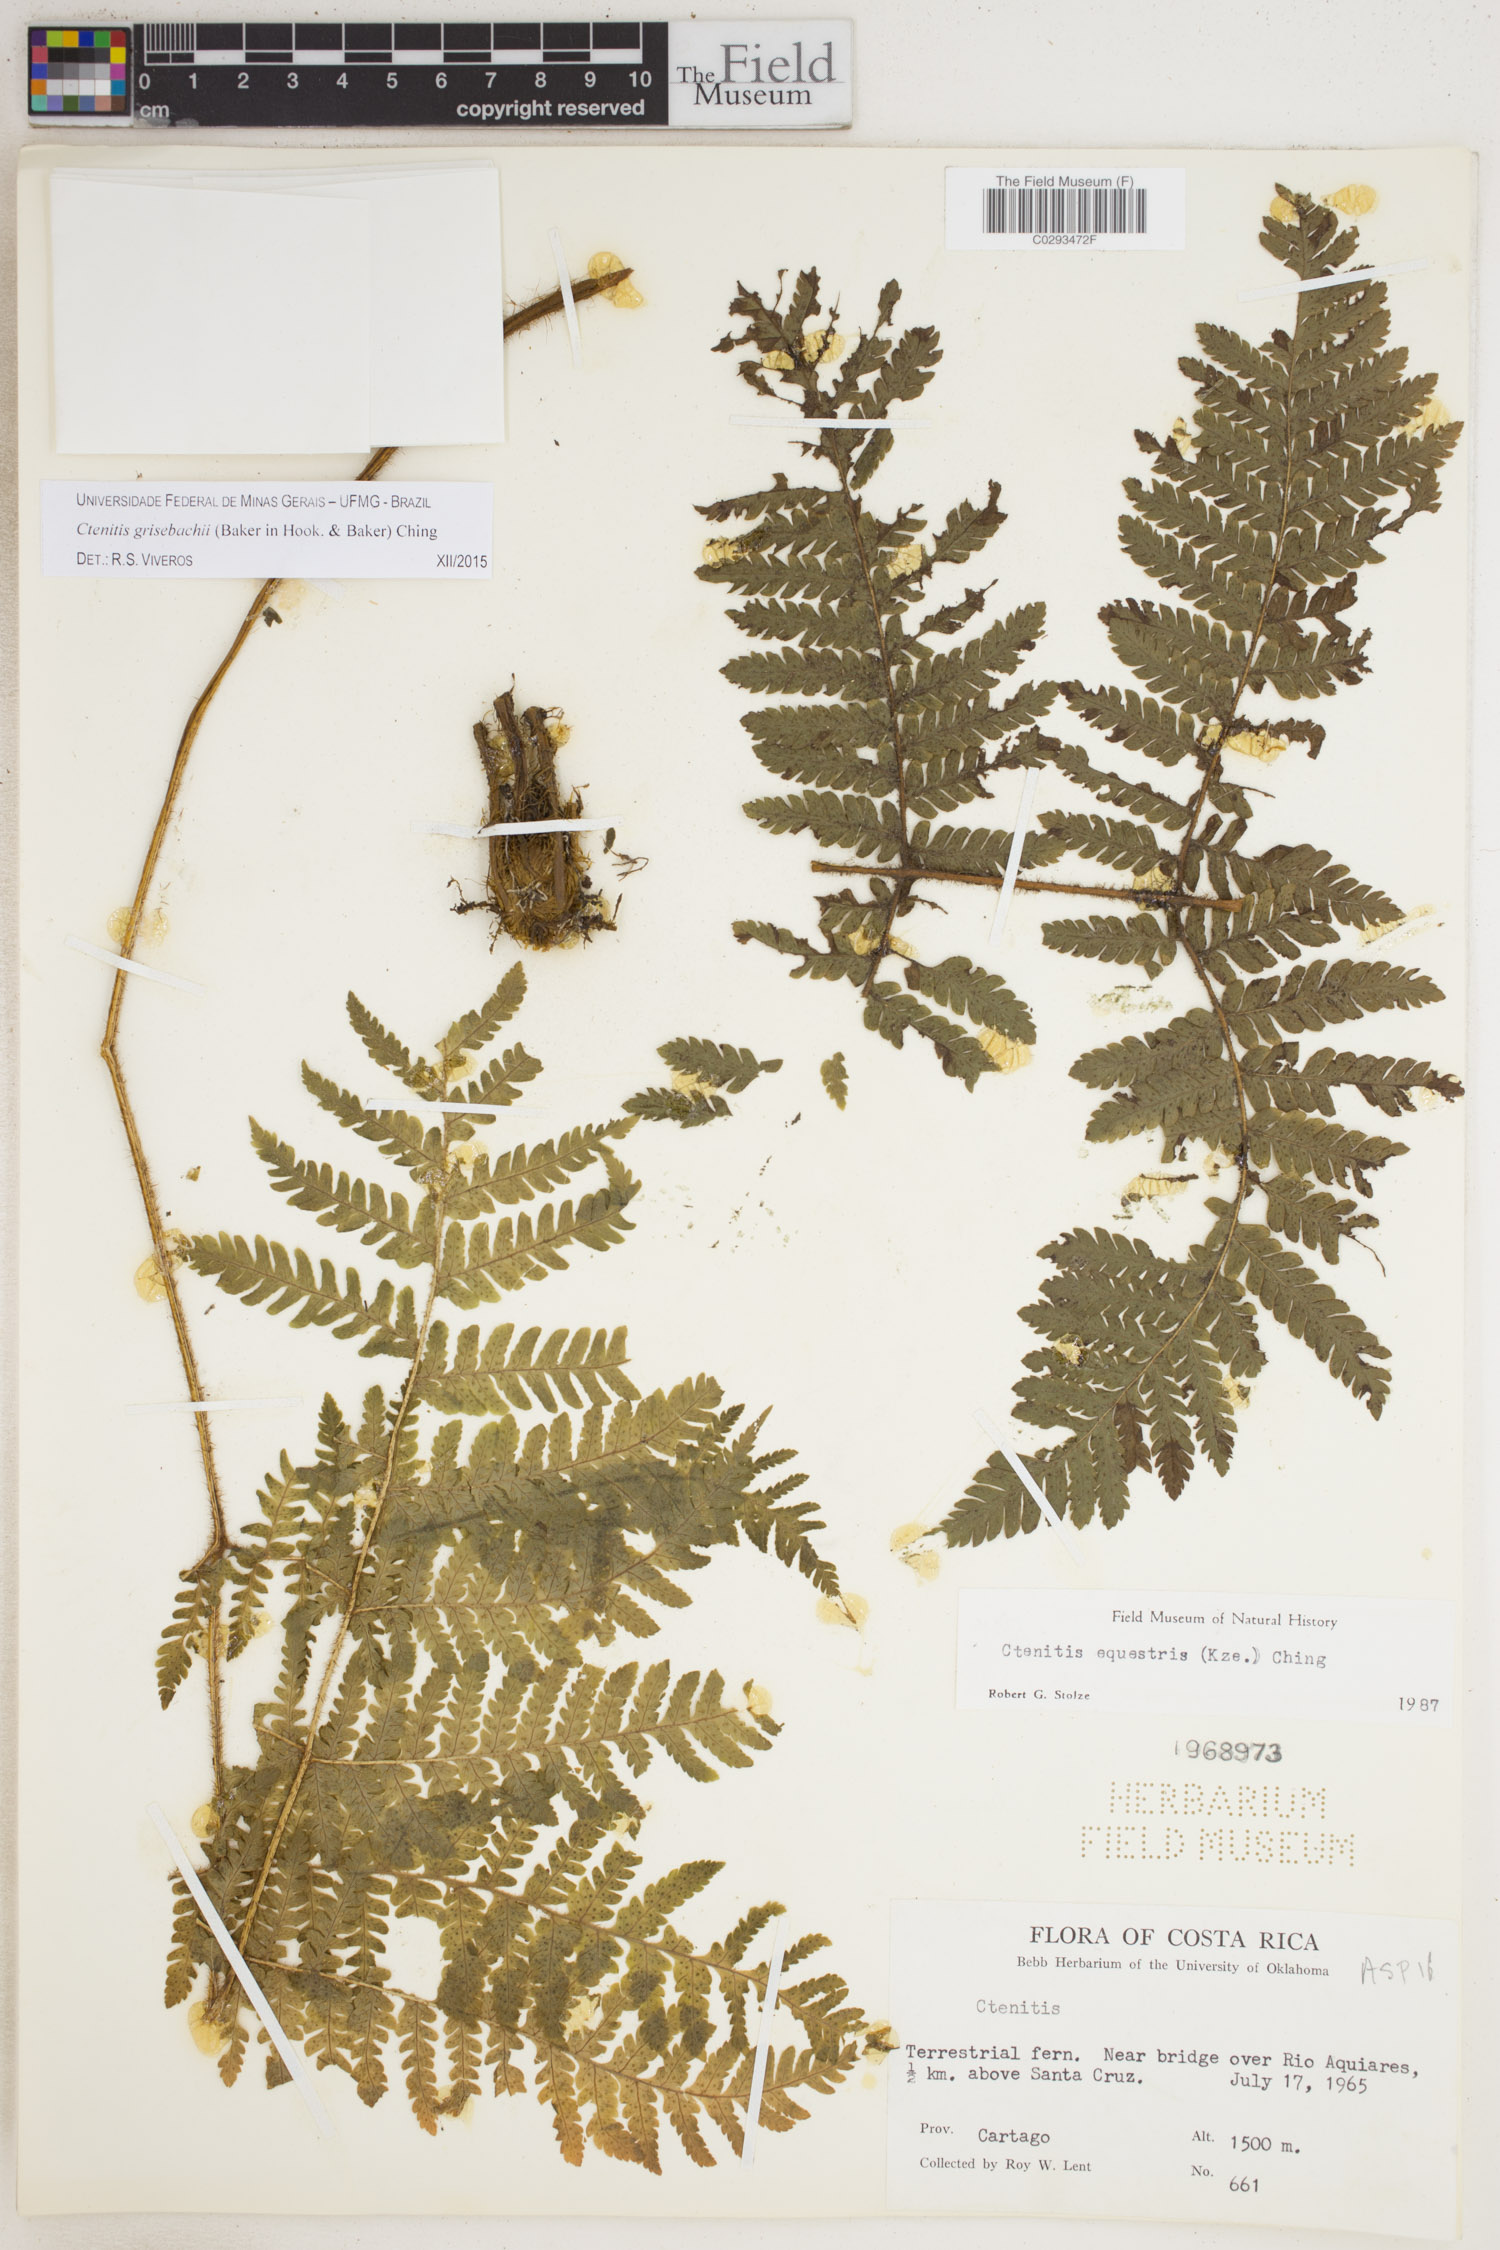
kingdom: Plantae
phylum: Tracheophyta
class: Polypodiopsida
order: Polypodiales
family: Dryopteridaceae
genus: Ctenitis
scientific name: Ctenitis equestris
